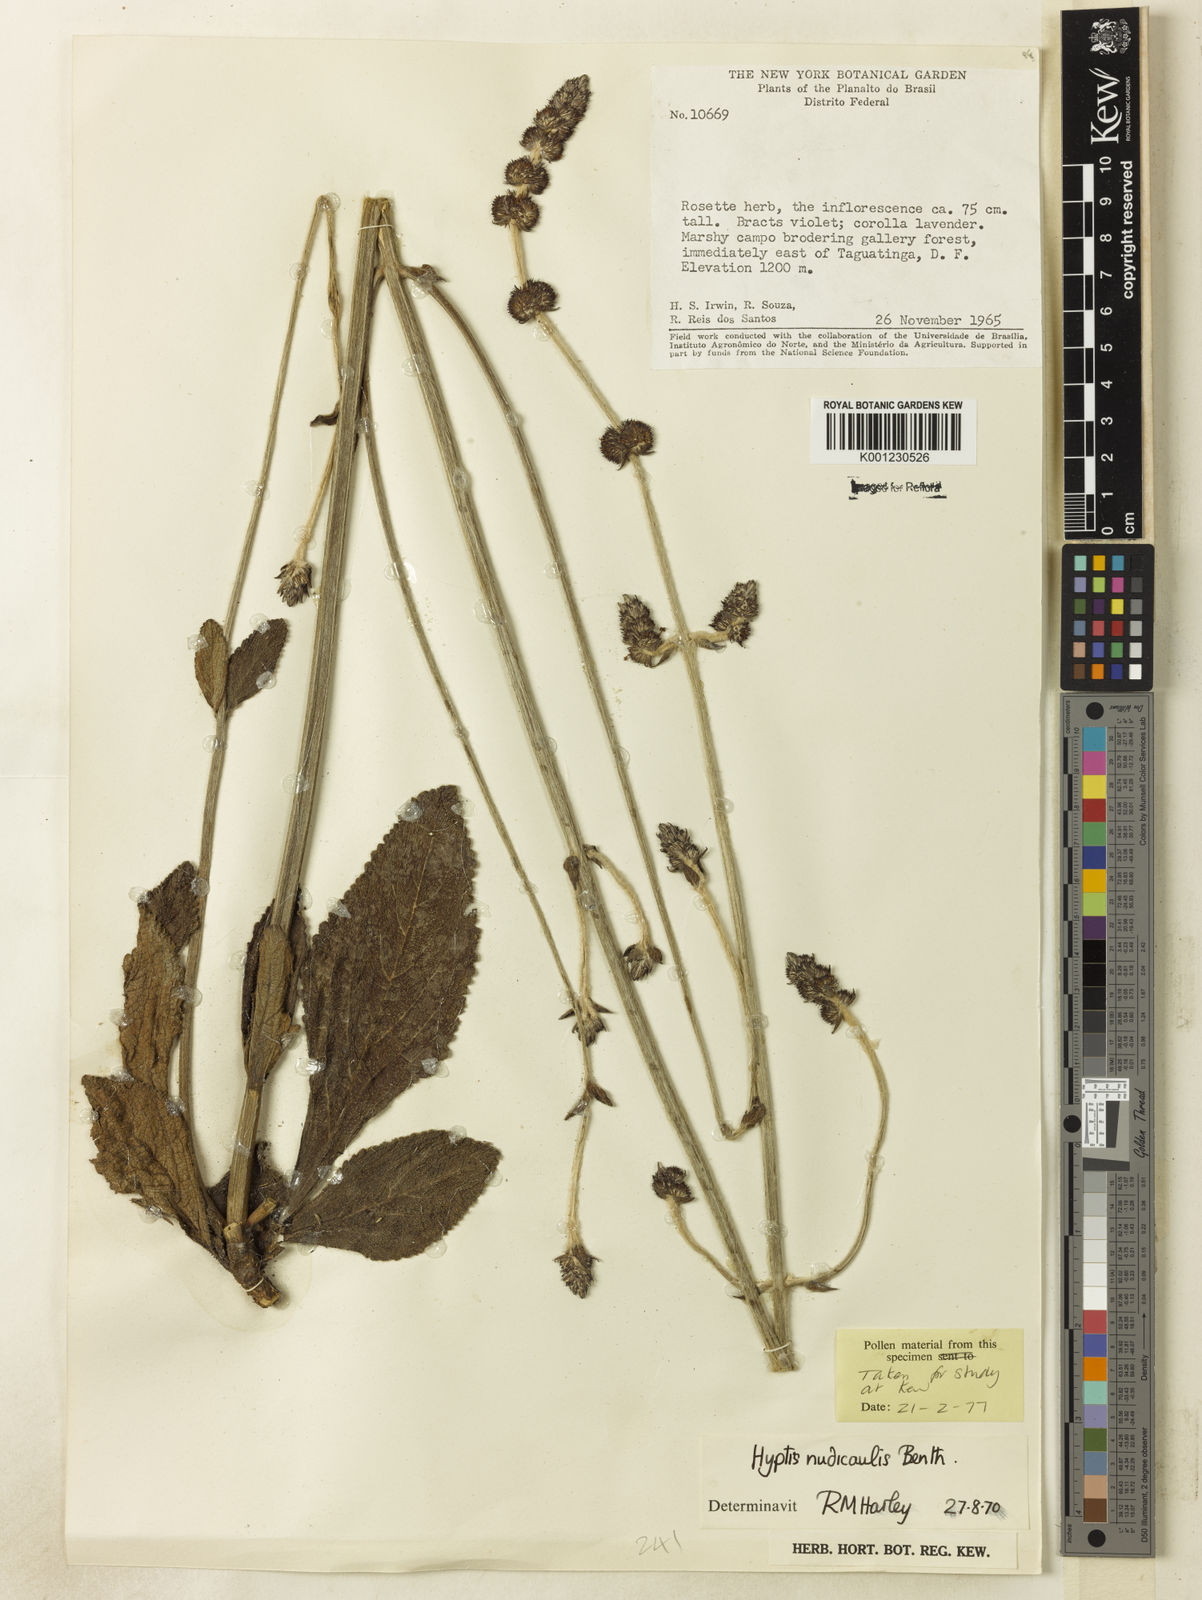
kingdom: Plantae
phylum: Tracheophyta
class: Magnoliopsida
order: Lamiales
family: Lamiaceae
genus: Hyptis
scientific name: Hyptis nudicaulis
